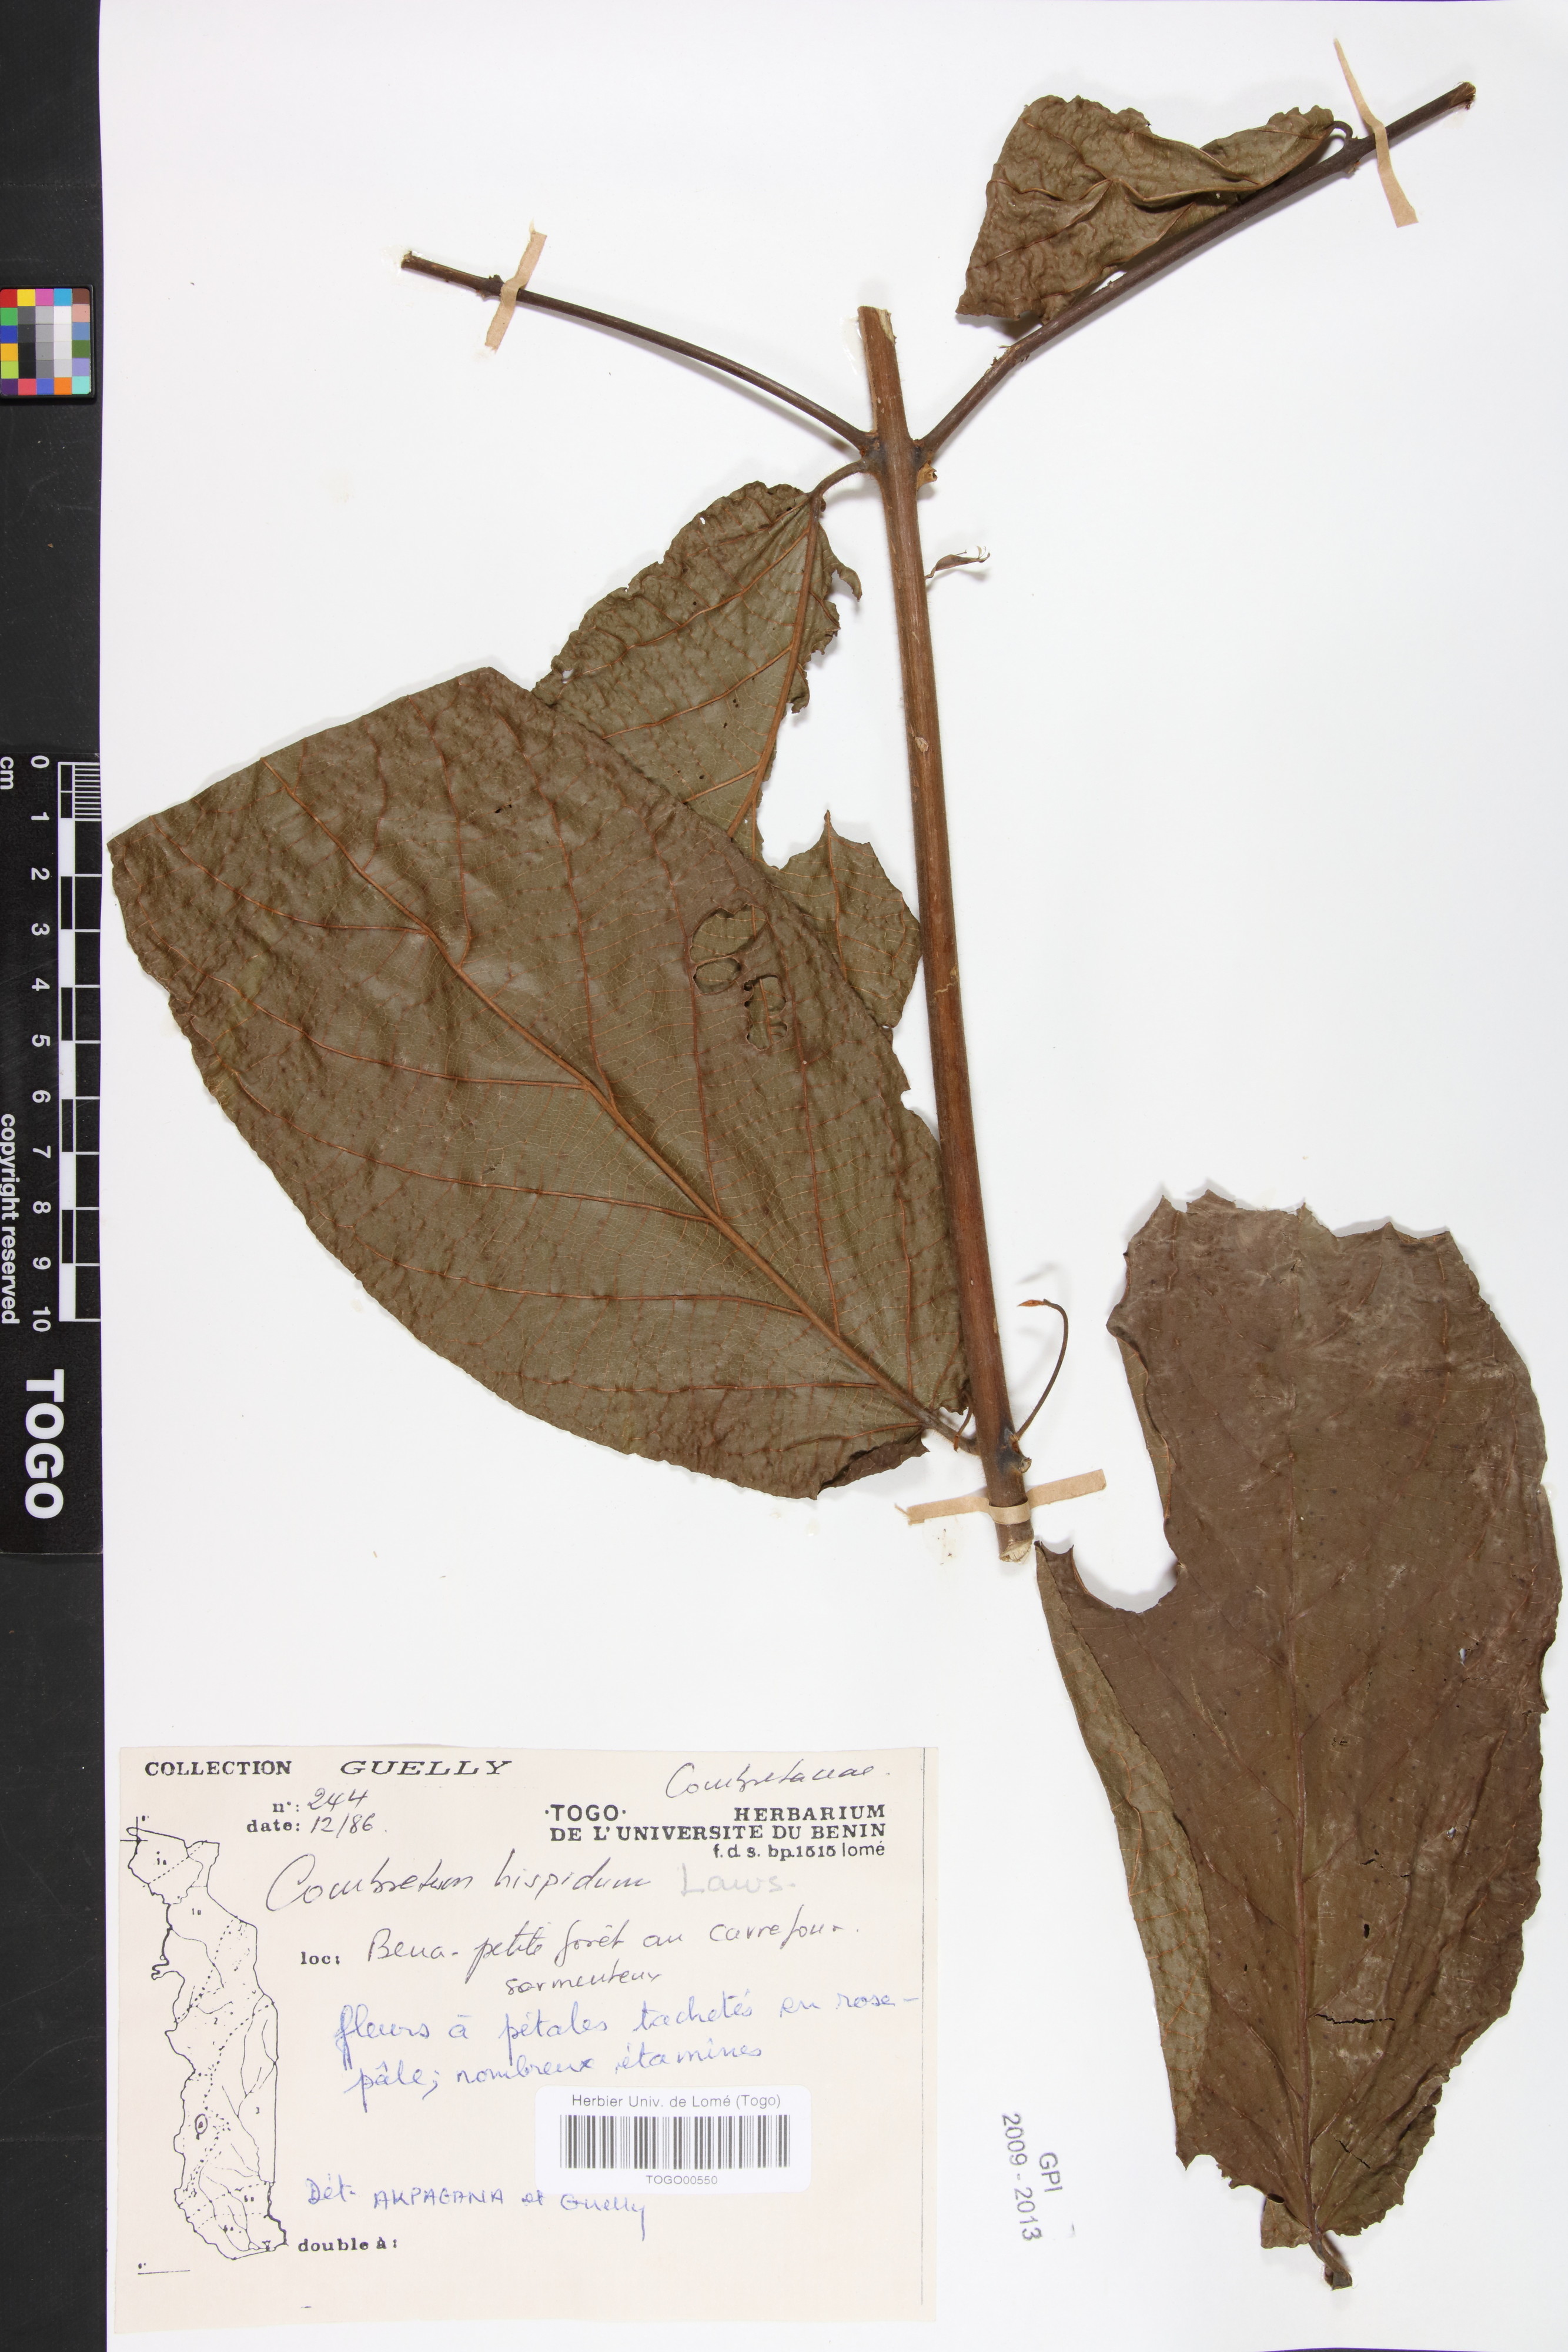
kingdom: Plantae
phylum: Tracheophyta
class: Magnoliopsida
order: Myrtales
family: Combretaceae
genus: Combretum
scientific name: Combretum comosum
